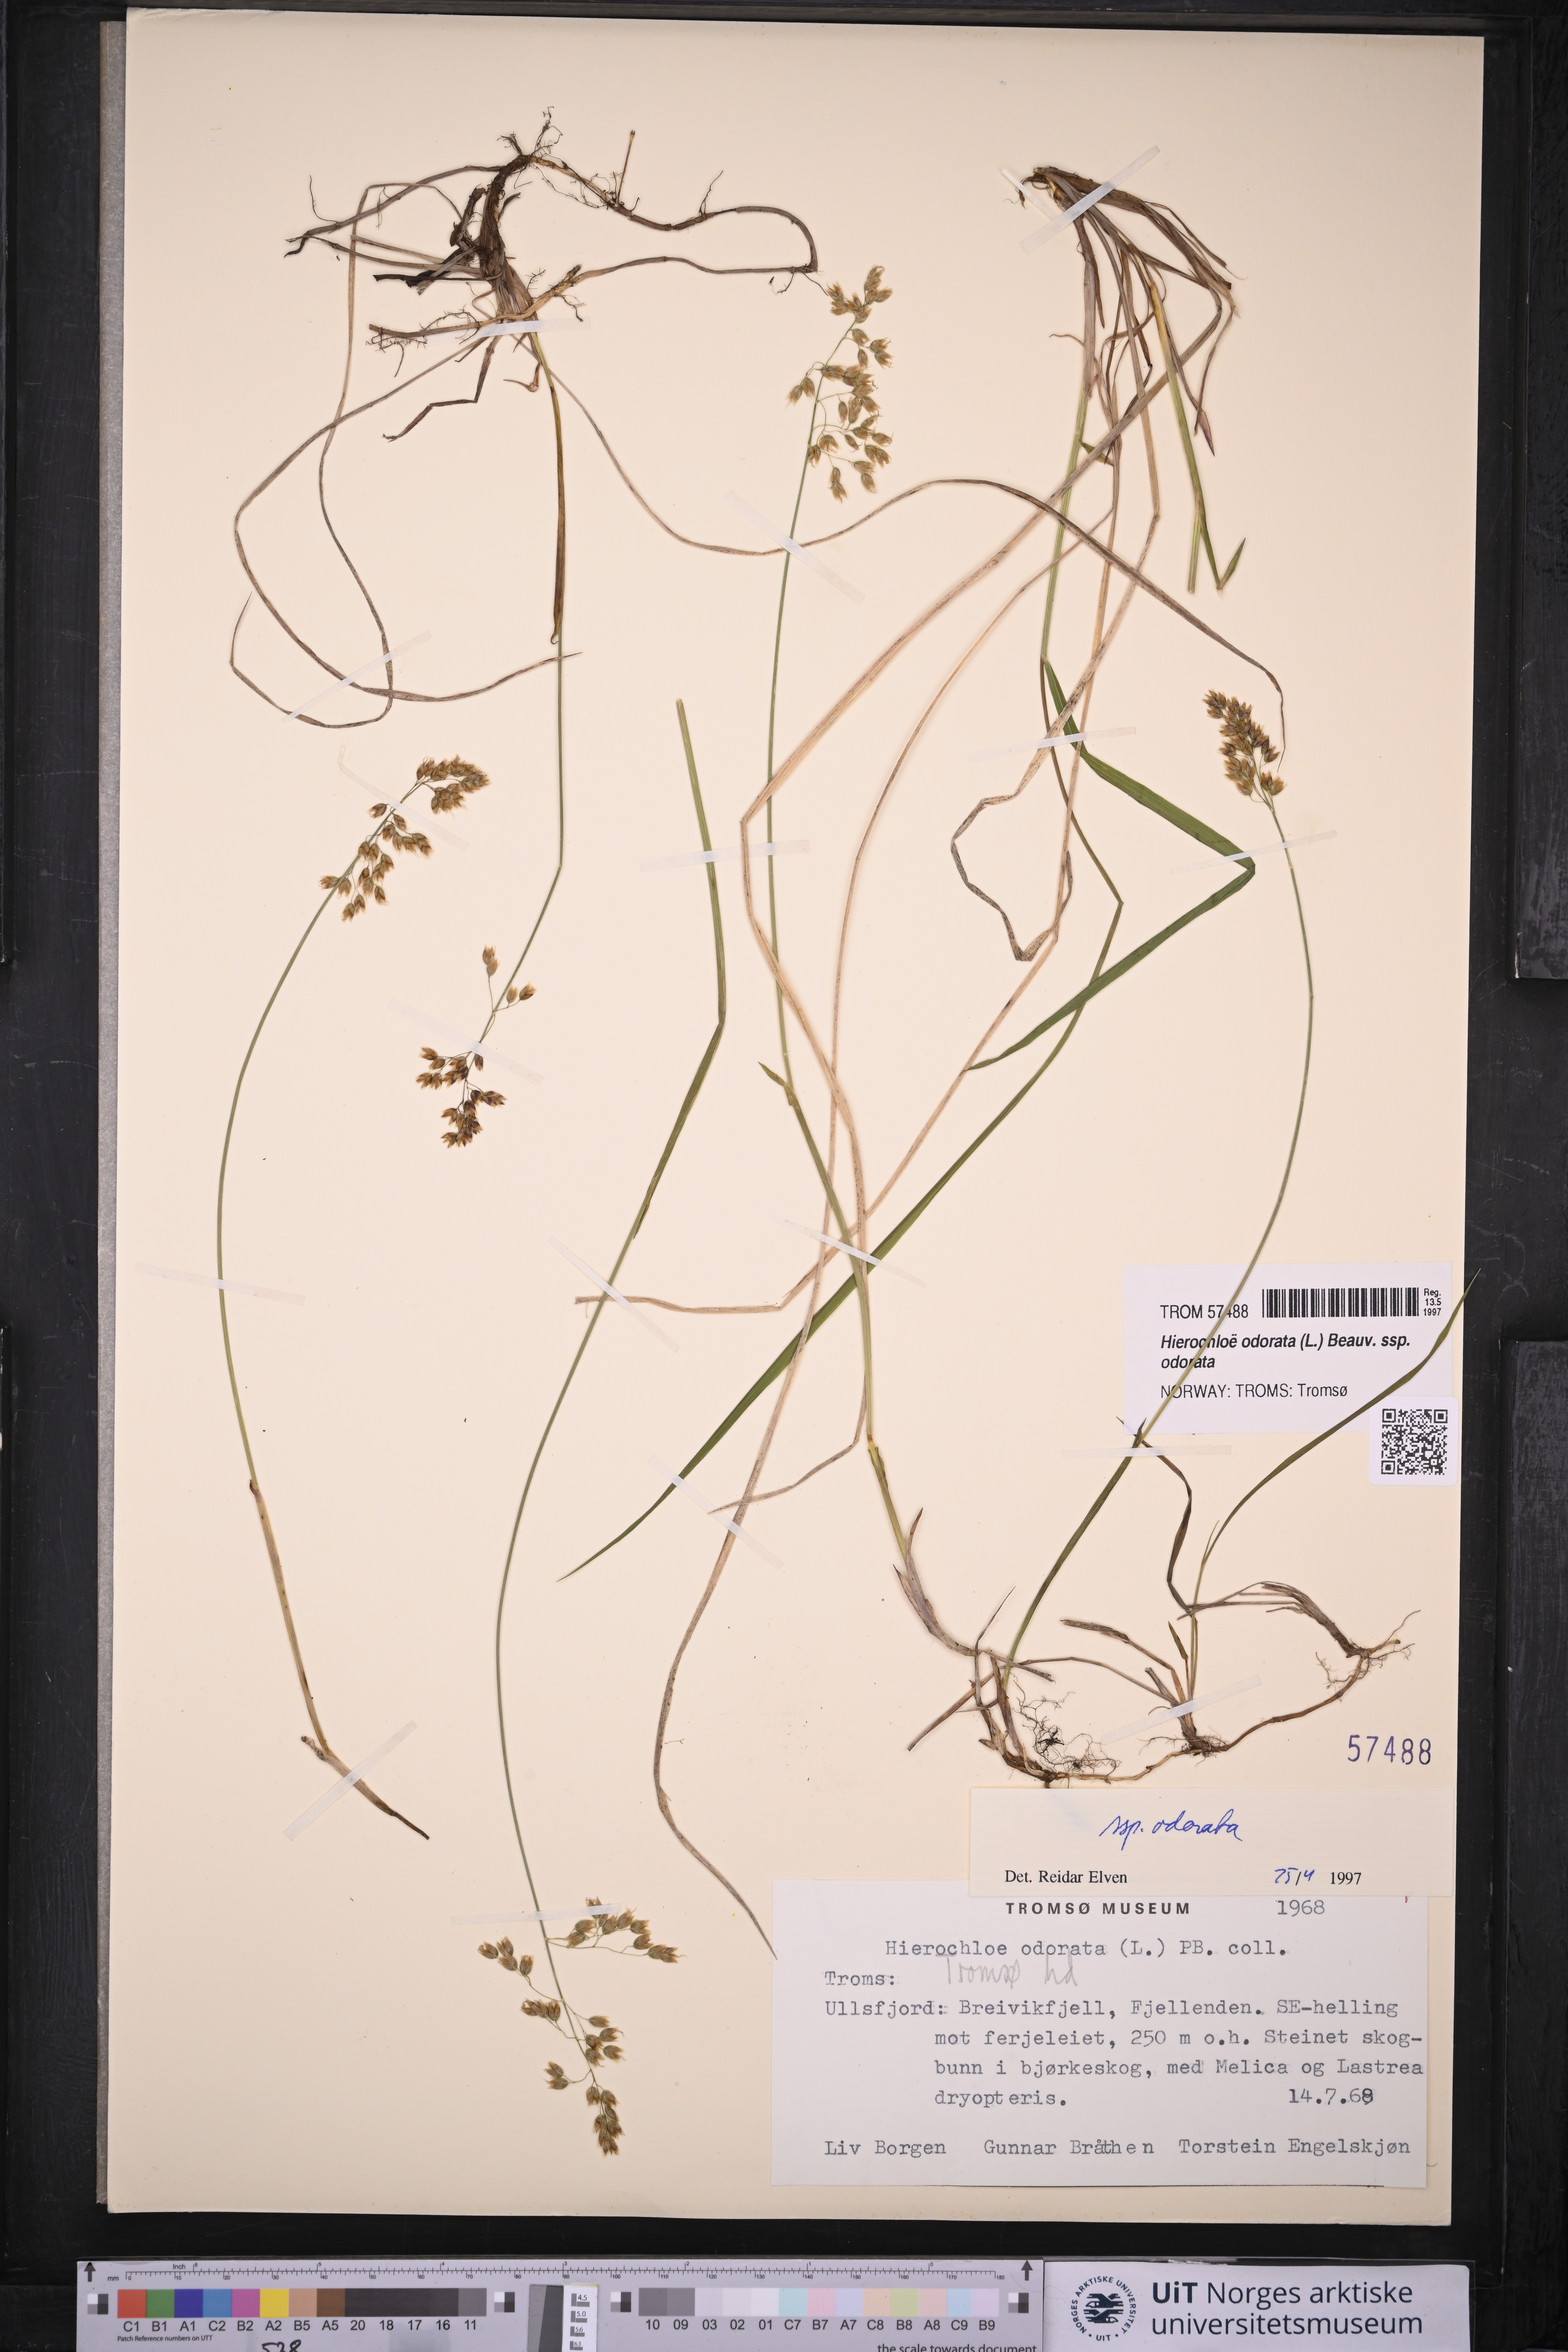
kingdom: Plantae
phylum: Tracheophyta
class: Liliopsida
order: Poales
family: Poaceae
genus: Anthoxanthum
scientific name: Anthoxanthum nitens
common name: Holy grass
